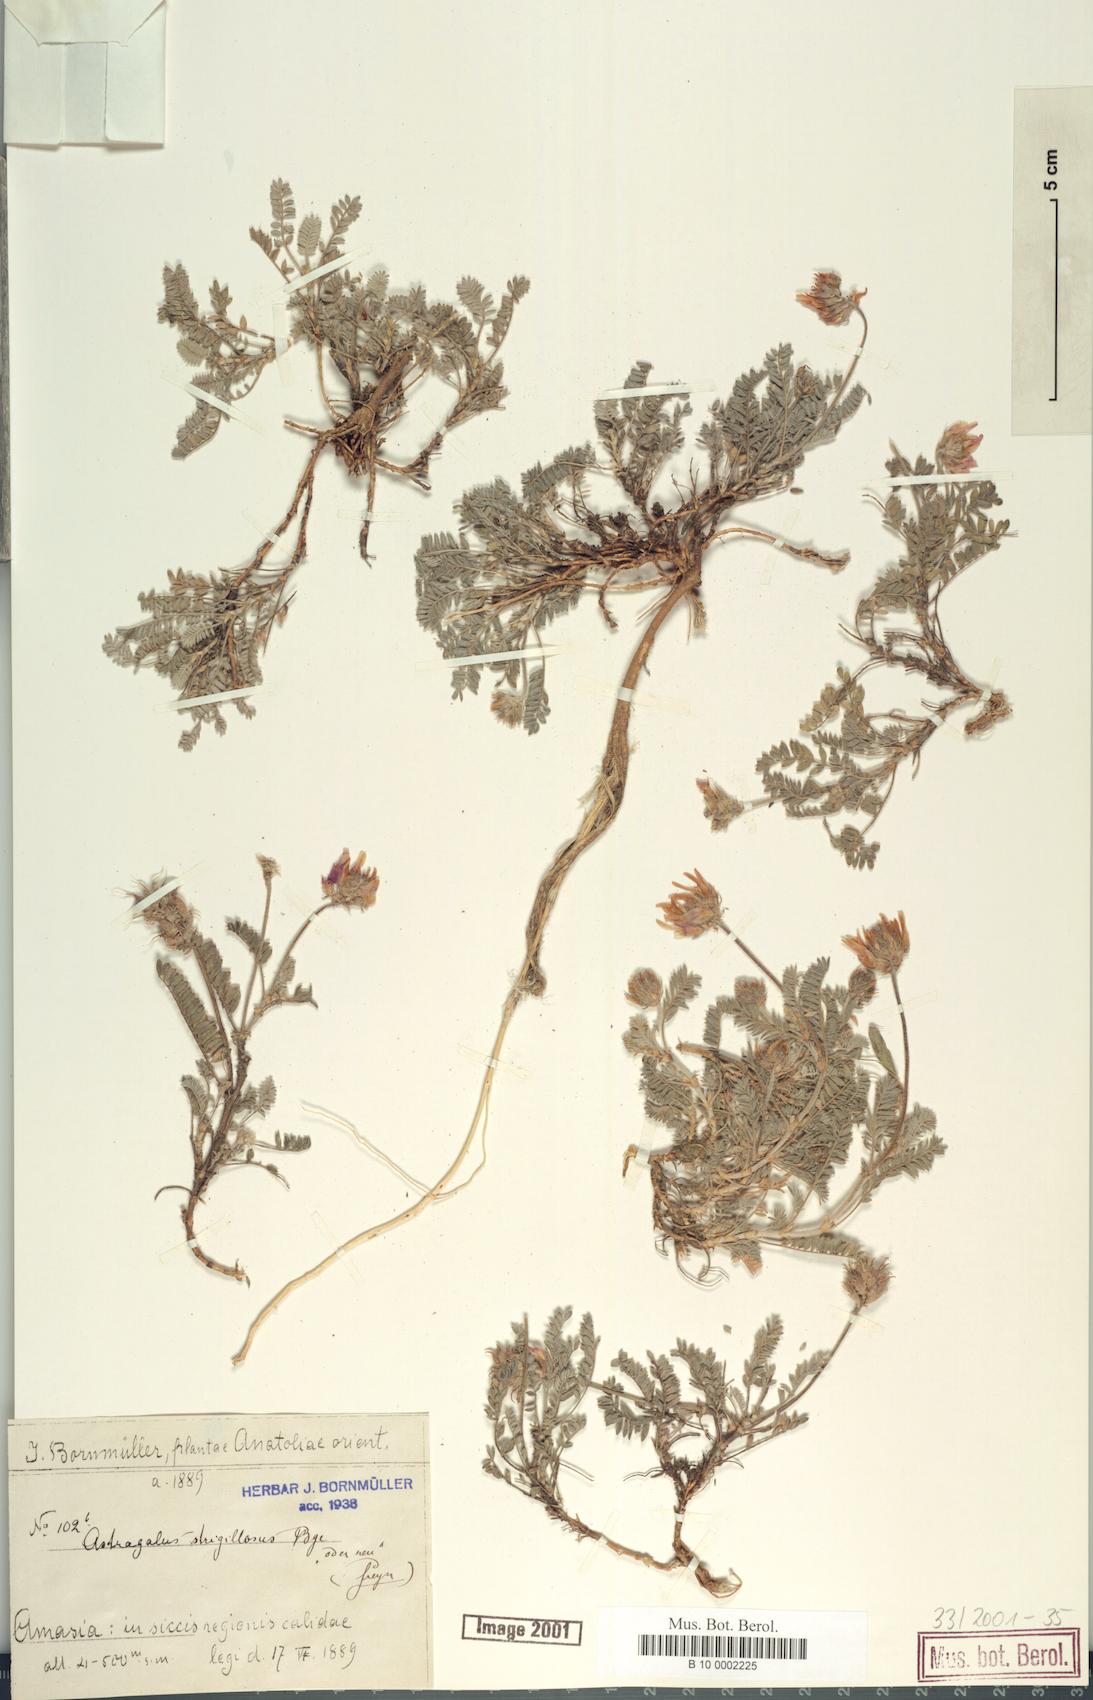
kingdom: Plantae
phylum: Tracheophyta
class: Magnoliopsida
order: Fabales
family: Fabaceae
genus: Astragalus
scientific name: Astragalus strigillosus
